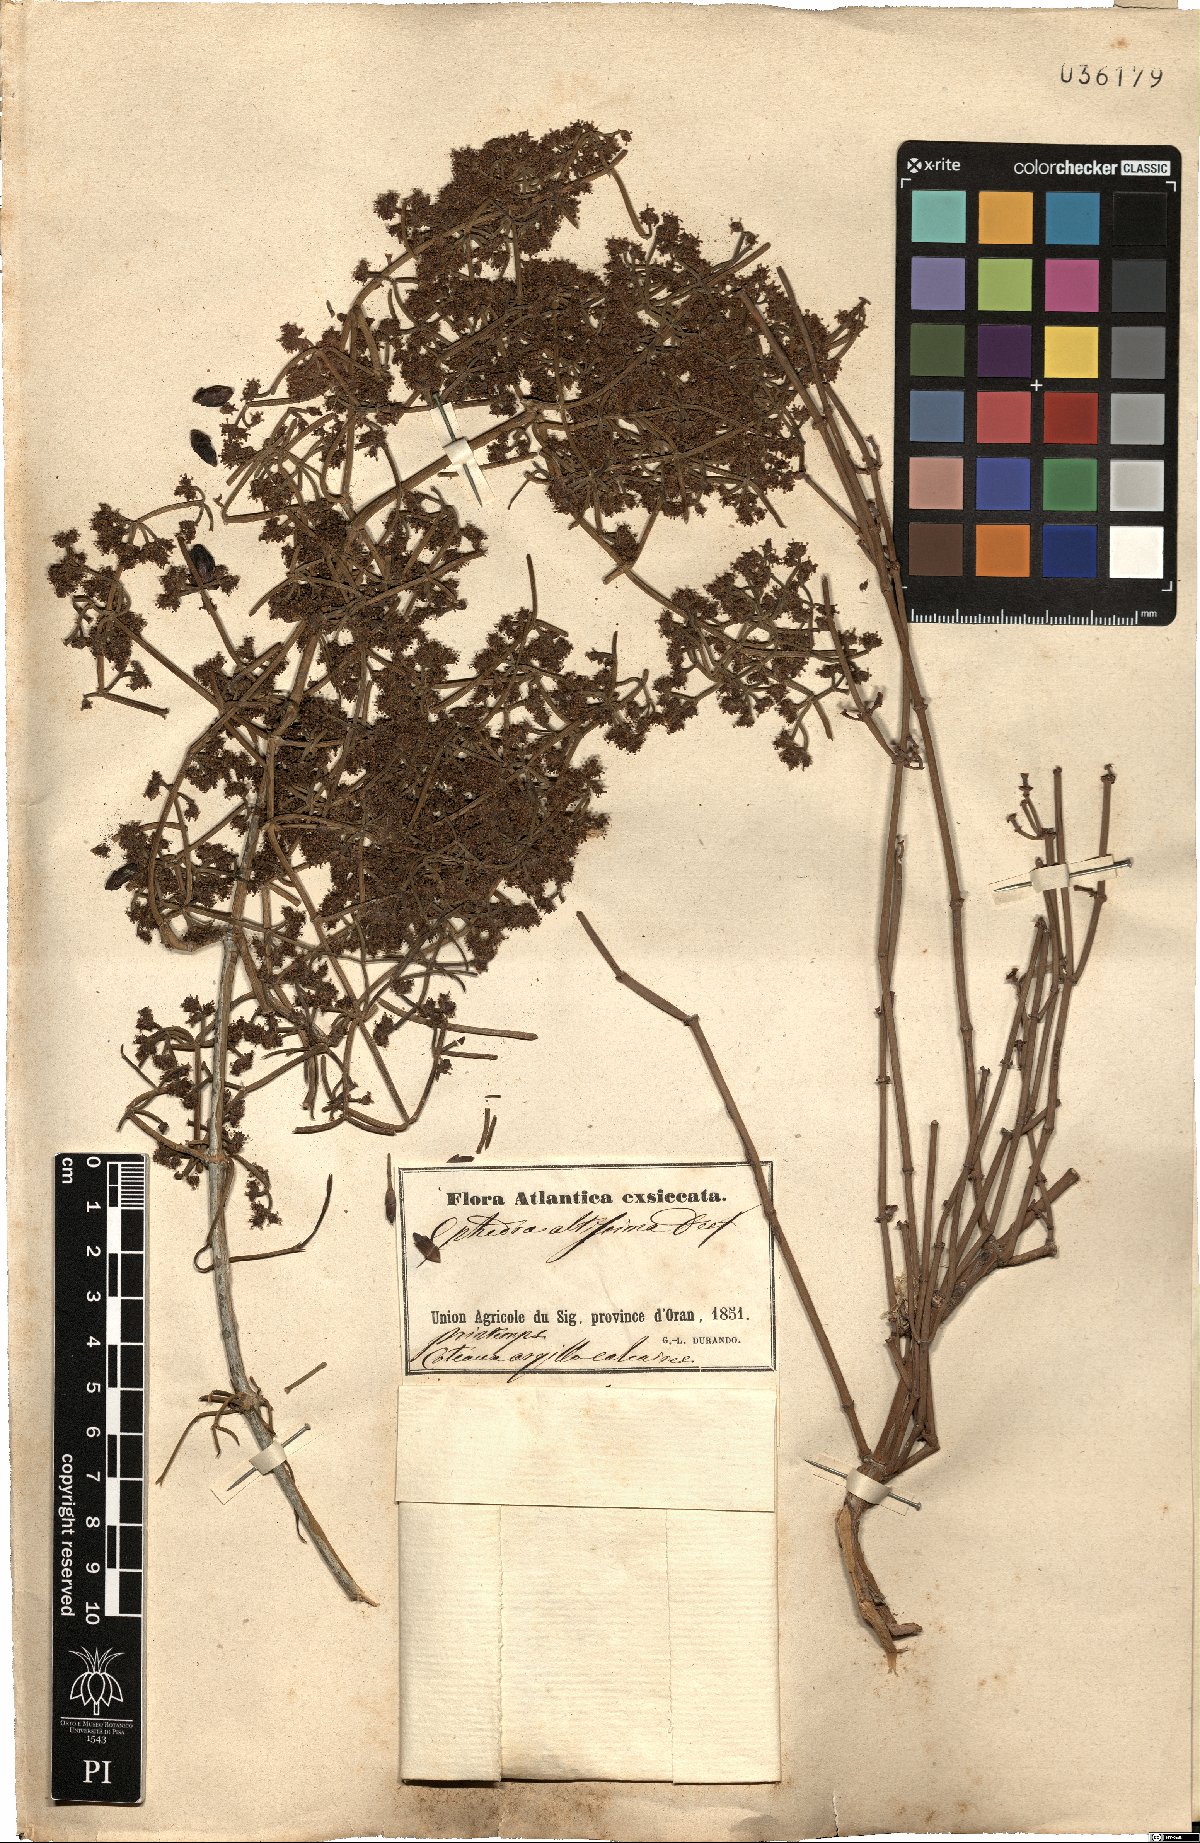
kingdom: Plantae
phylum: Tracheophyta
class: Gnetopsida
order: Ephedrales
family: Ephedraceae
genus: Ephedra
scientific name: Ephedra altissima
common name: High-climbing jointfir
